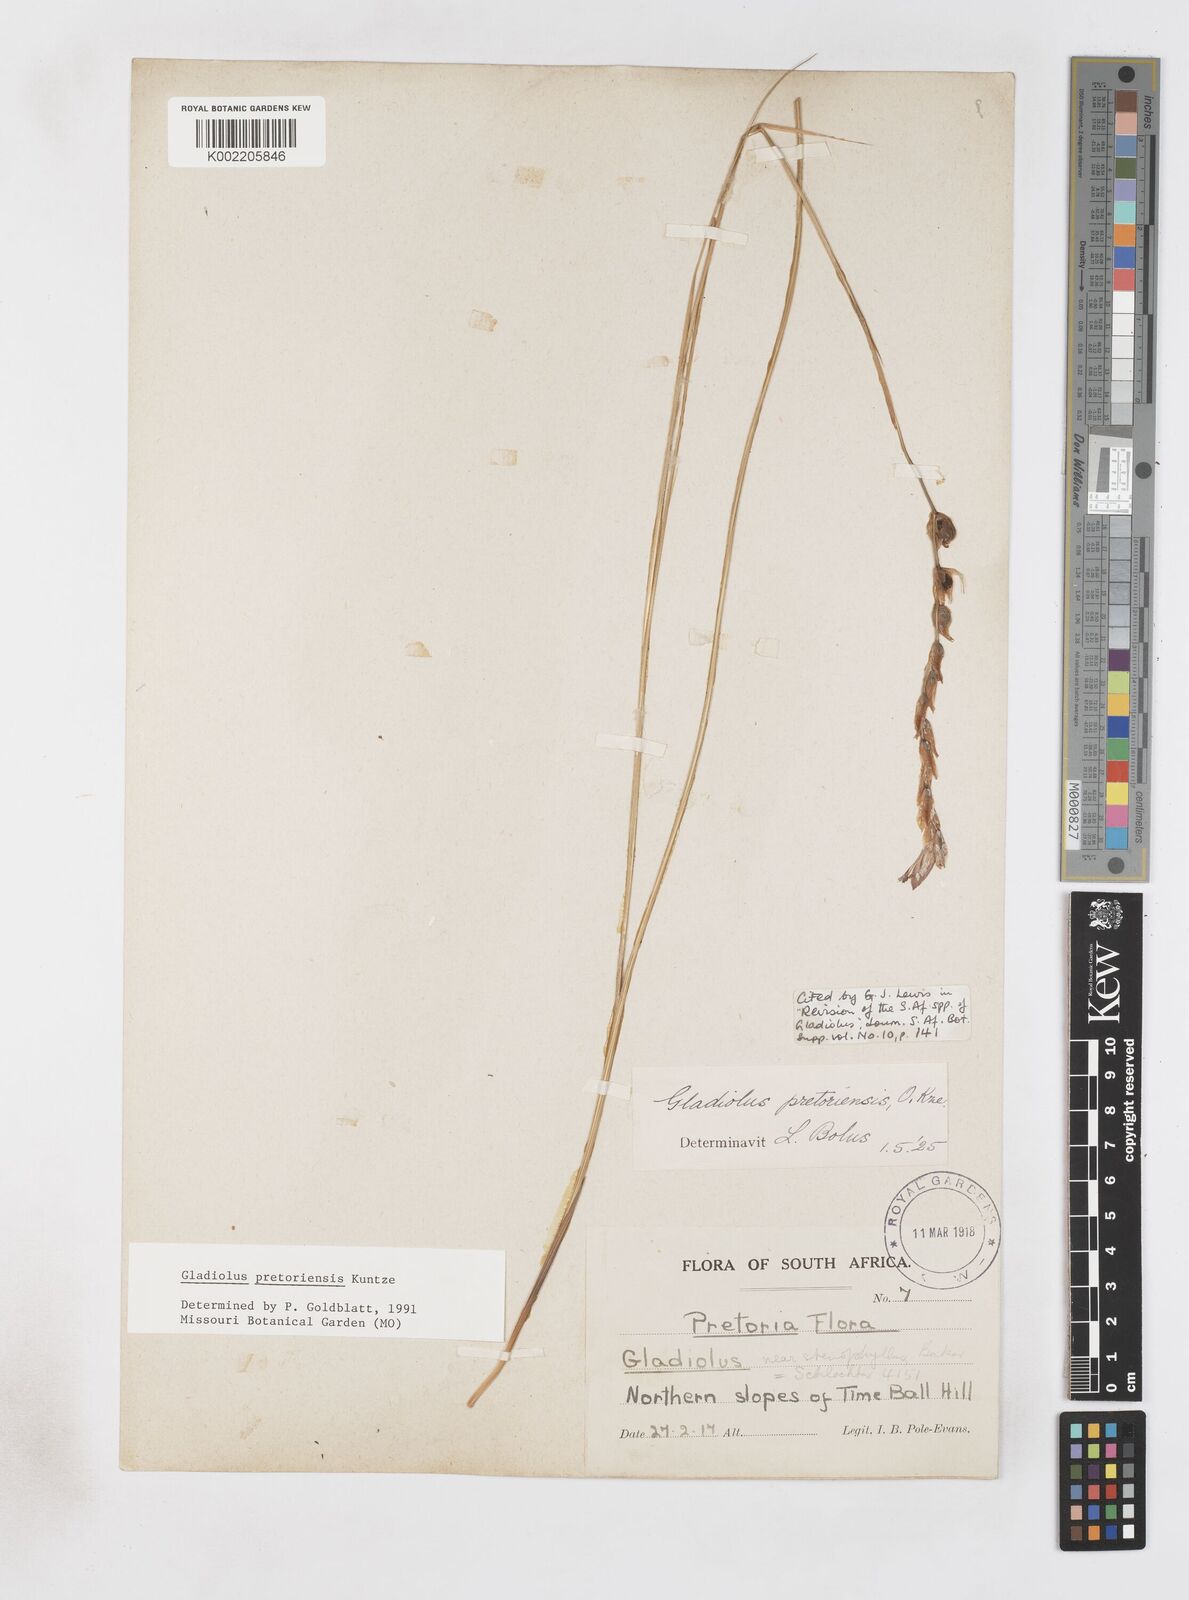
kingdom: Plantae
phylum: Tracheophyta
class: Liliopsida
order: Asparagales
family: Iridaceae
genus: Gladiolus
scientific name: Gladiolus pretoriensis
